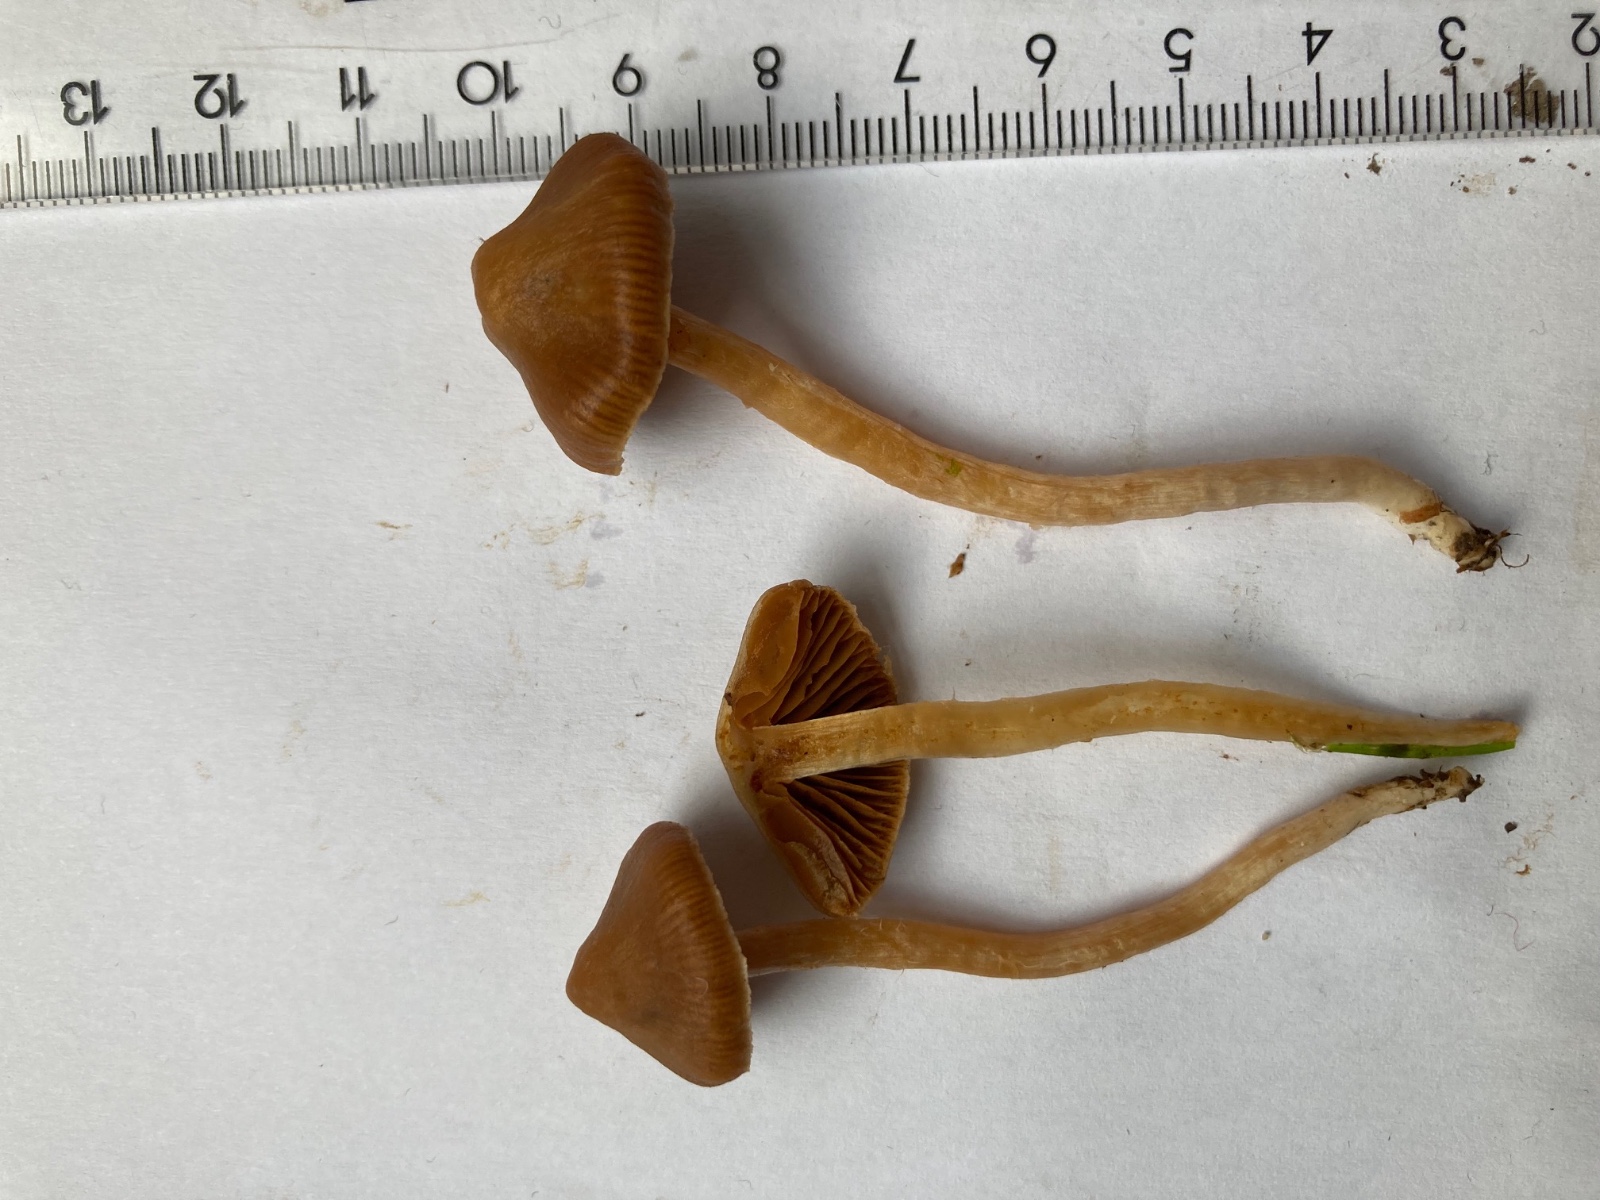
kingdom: Fungi
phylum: Basidiomycota
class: Agaricomycetes
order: Agaricales
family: Cortinariaceae
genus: Cortinarius
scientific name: Cortinarius
